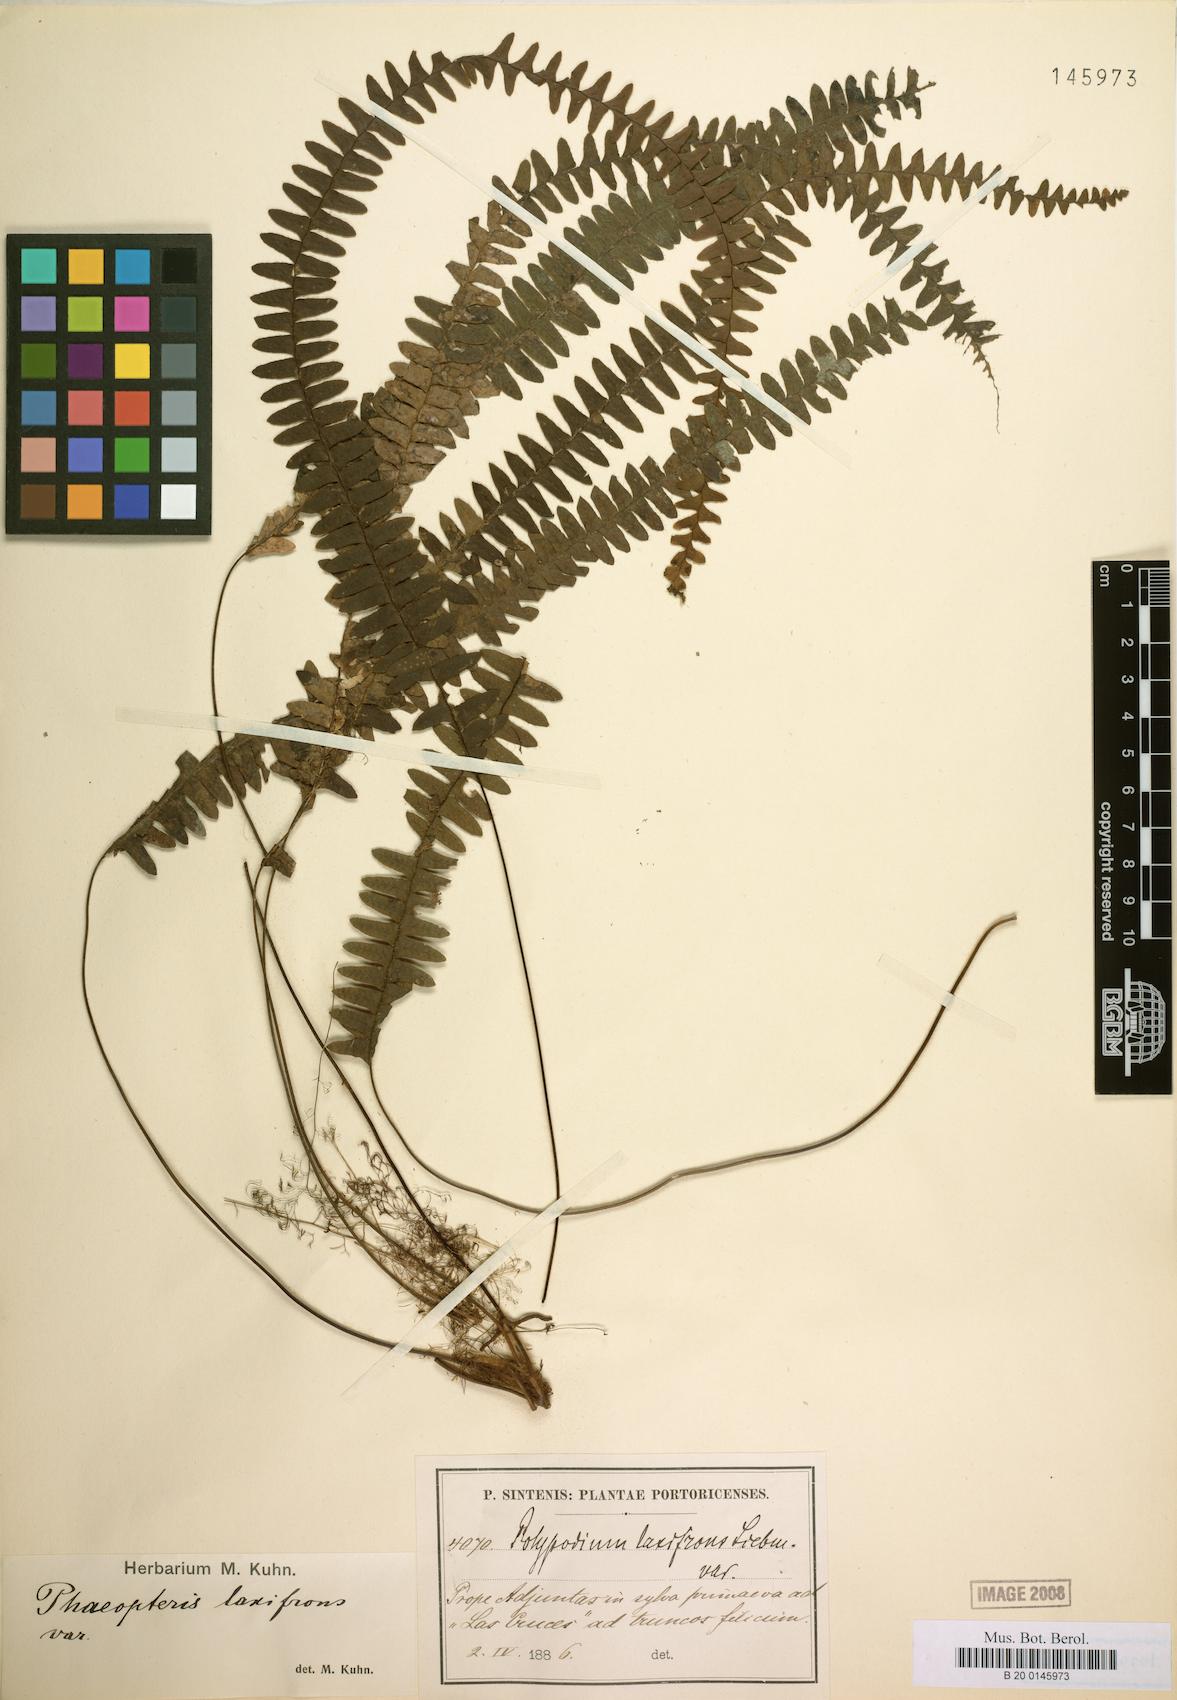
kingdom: Plantae
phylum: Tracheophyta
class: Polypodiopsida
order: Polypodiales
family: Polypodiaceae
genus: Terpsichore
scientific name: Terpsichore asplenifolia
